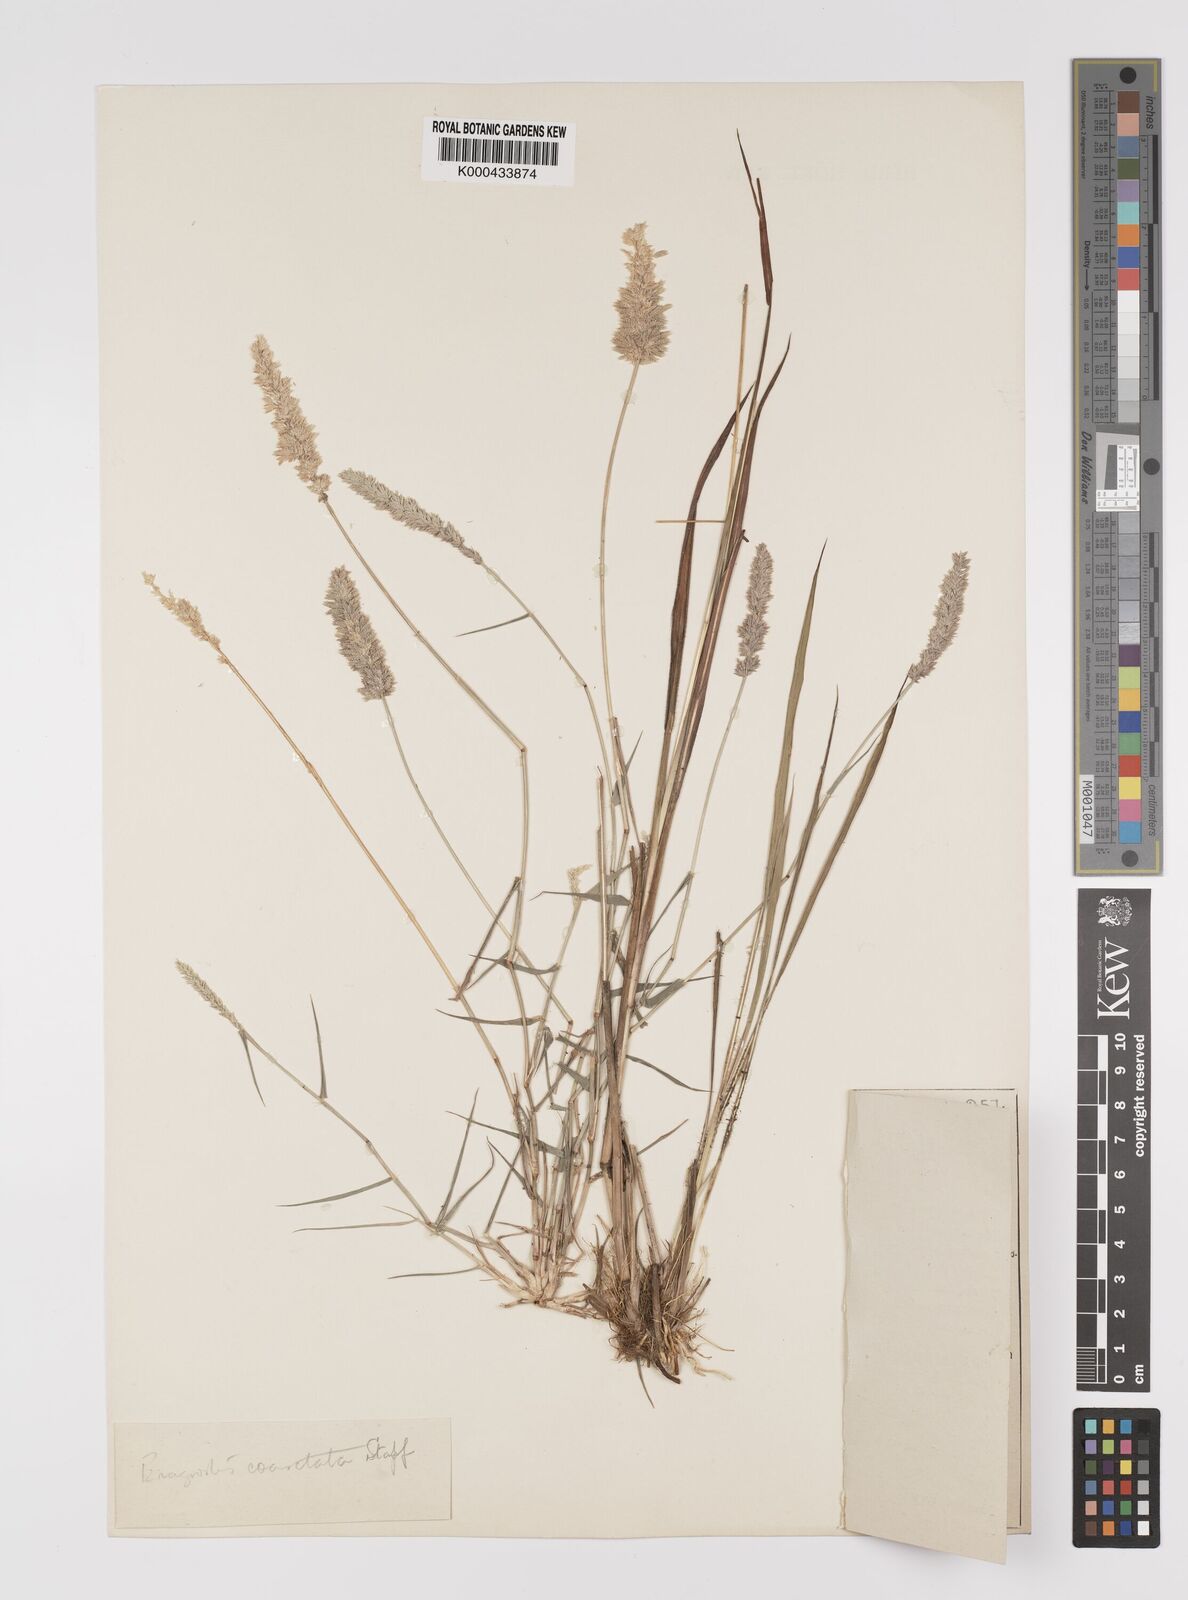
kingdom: Plantae
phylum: Tracheophyta
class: Liliopsida
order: Poales
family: Poaceae
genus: Eragrostis
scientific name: Eragrostis coarctata
